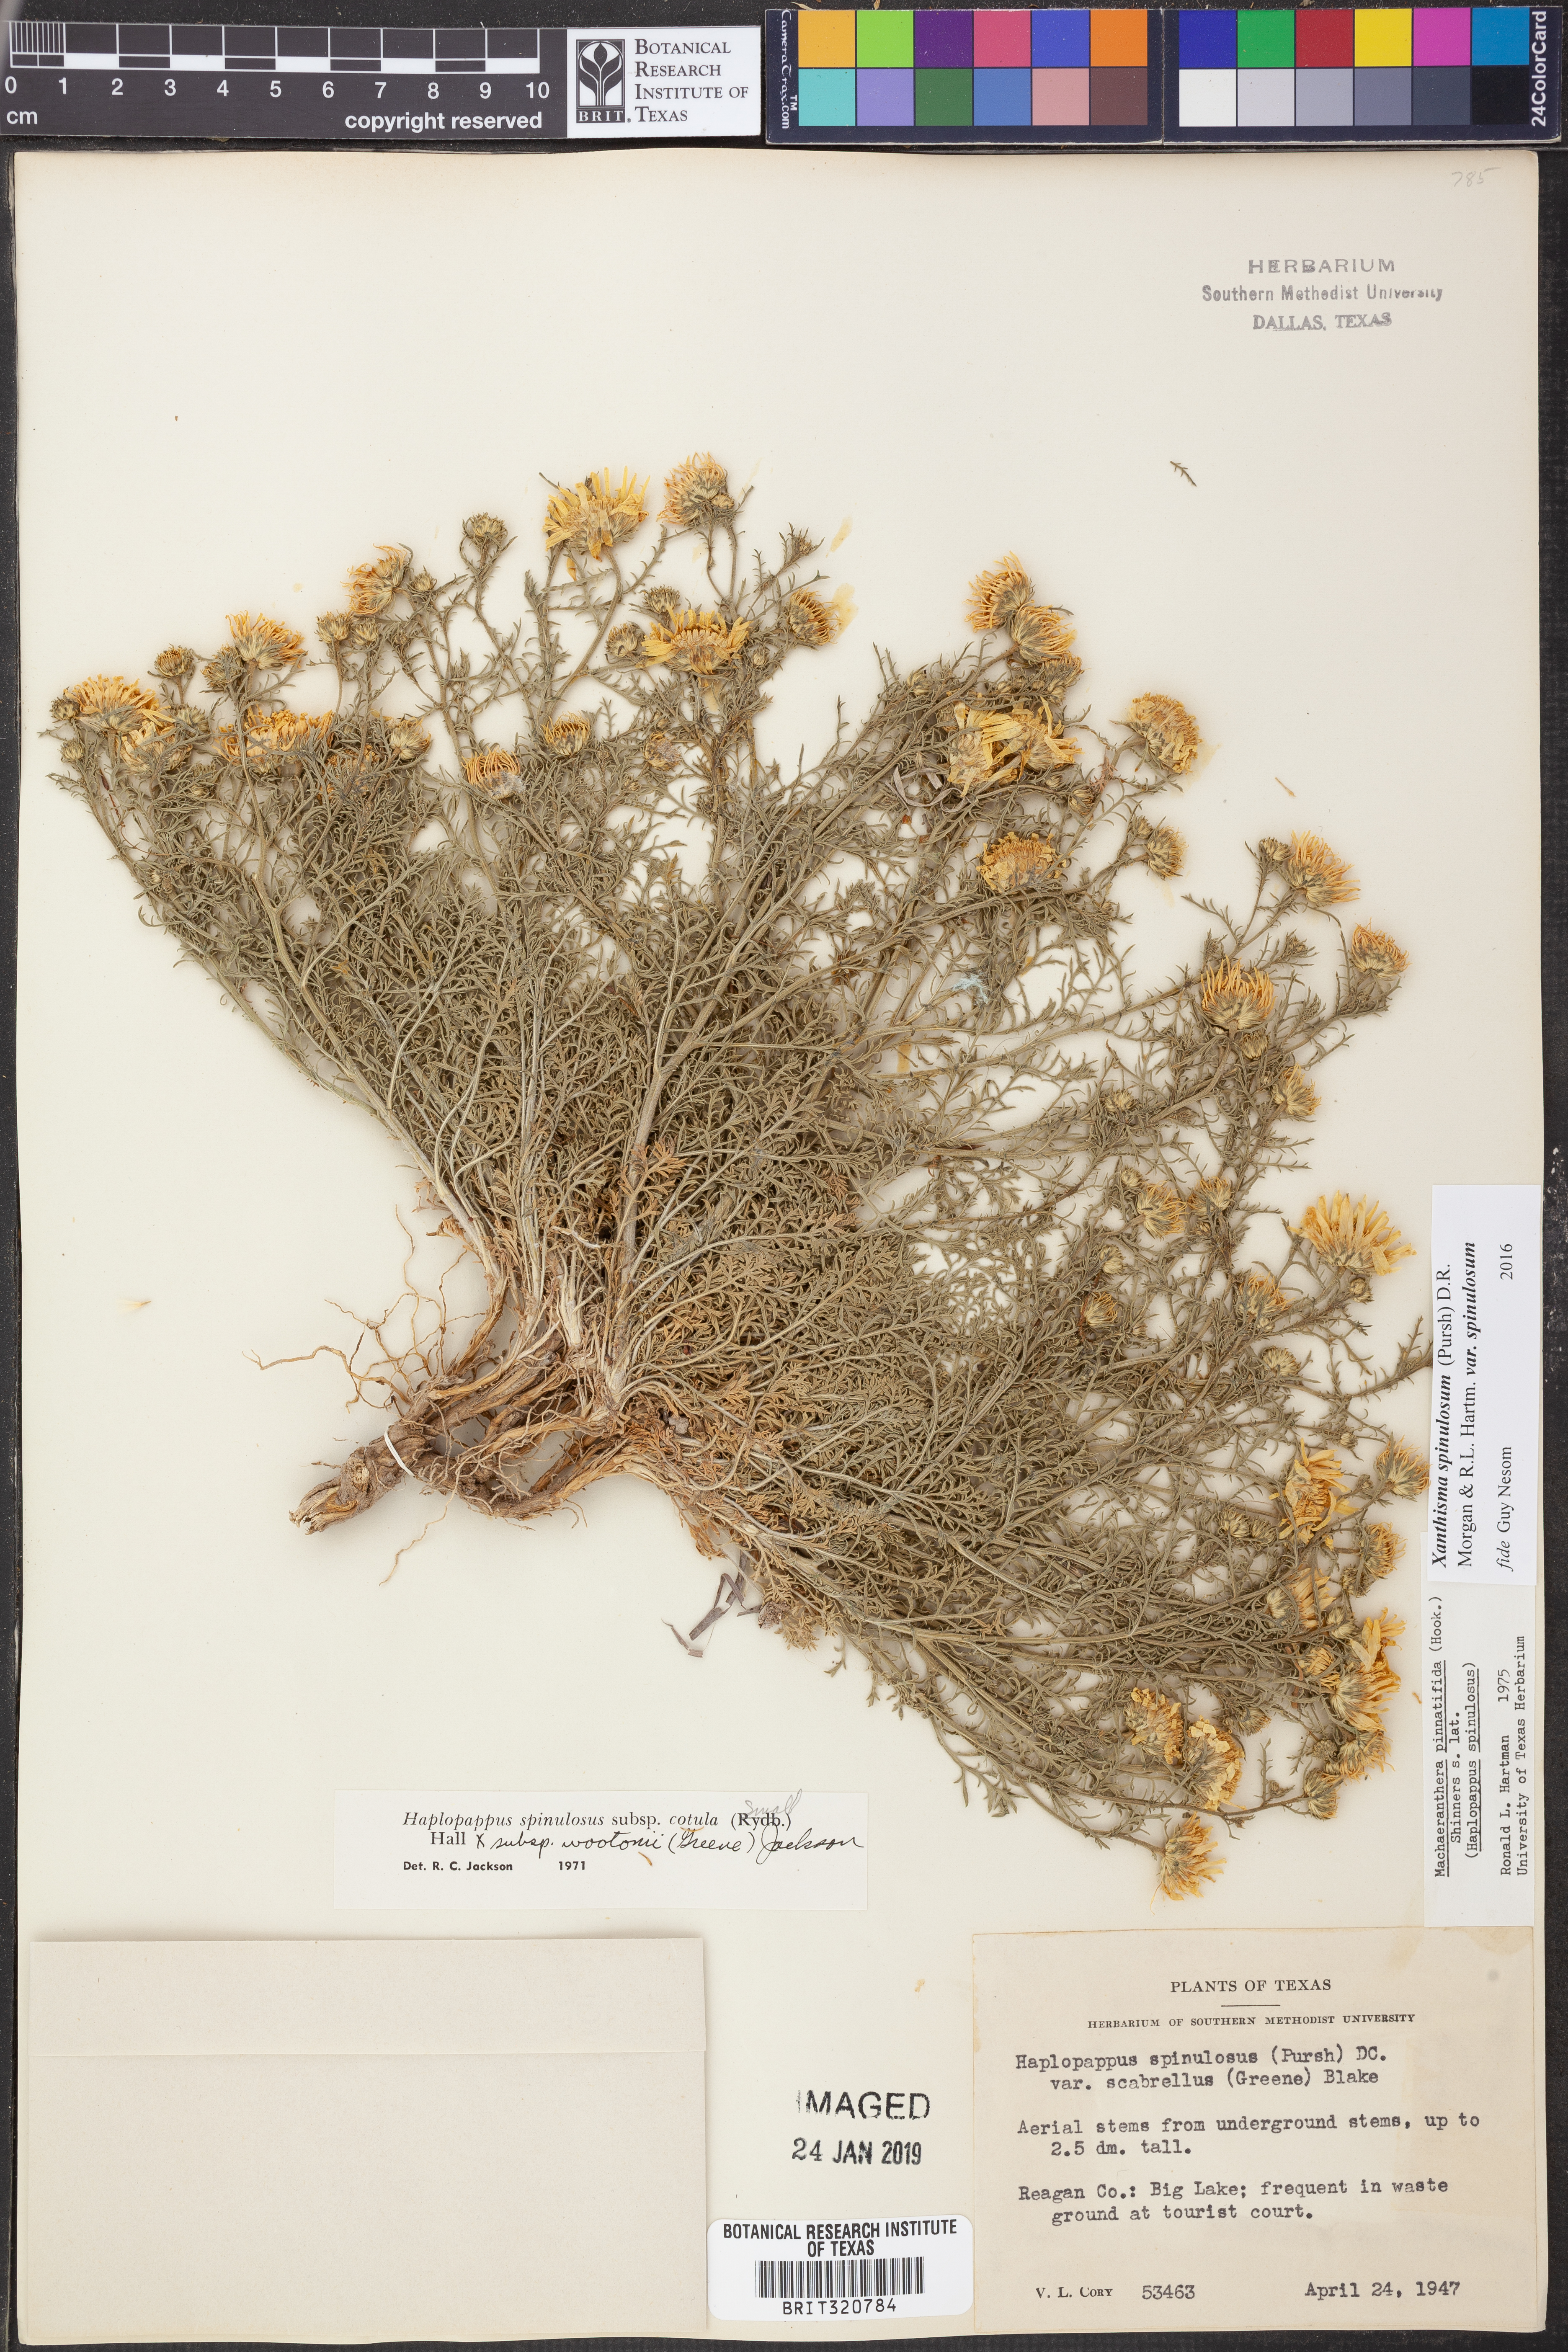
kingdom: Plantae
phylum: Tracheophyta
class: Magnoliopsida
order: Asterales
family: Asteraceae
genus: Xanthisma
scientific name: Xanthisma spinulosum
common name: Spiny goldenweed
